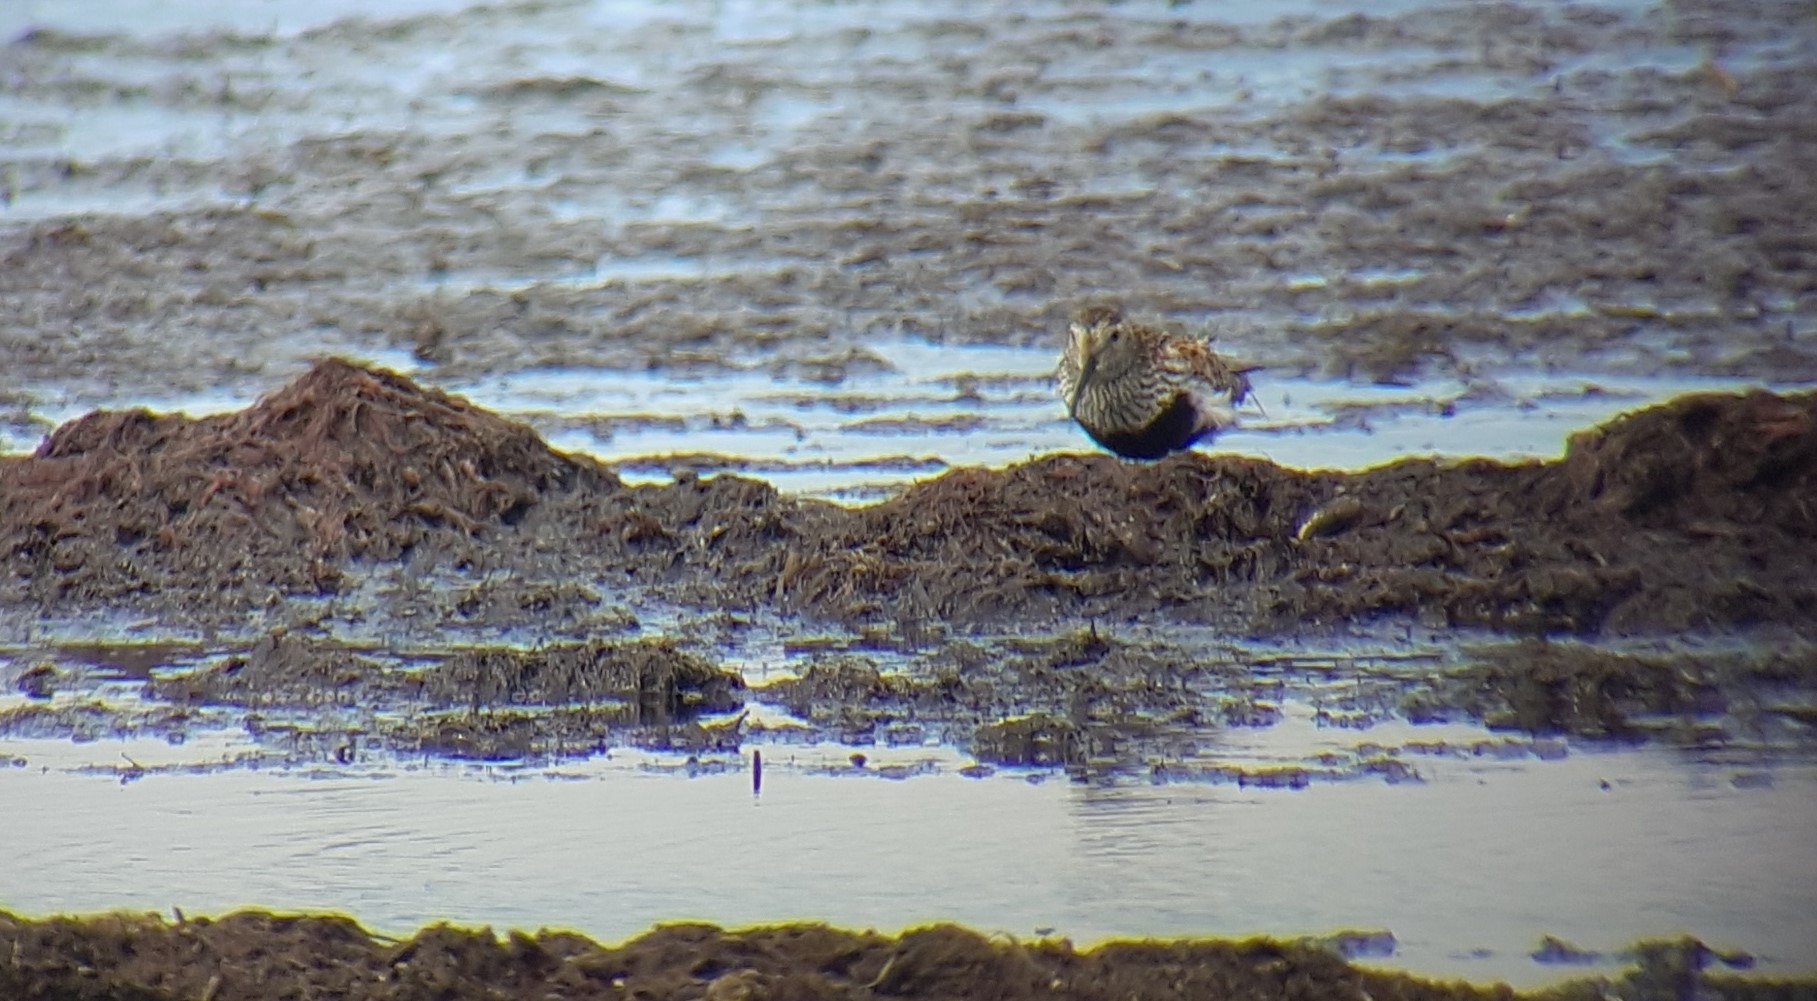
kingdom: Animalia
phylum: Chordata
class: Aves
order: Charadriiformes
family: Scolopacidae
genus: Calidris
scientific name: Calidris alpina
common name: Almindelig ryle
